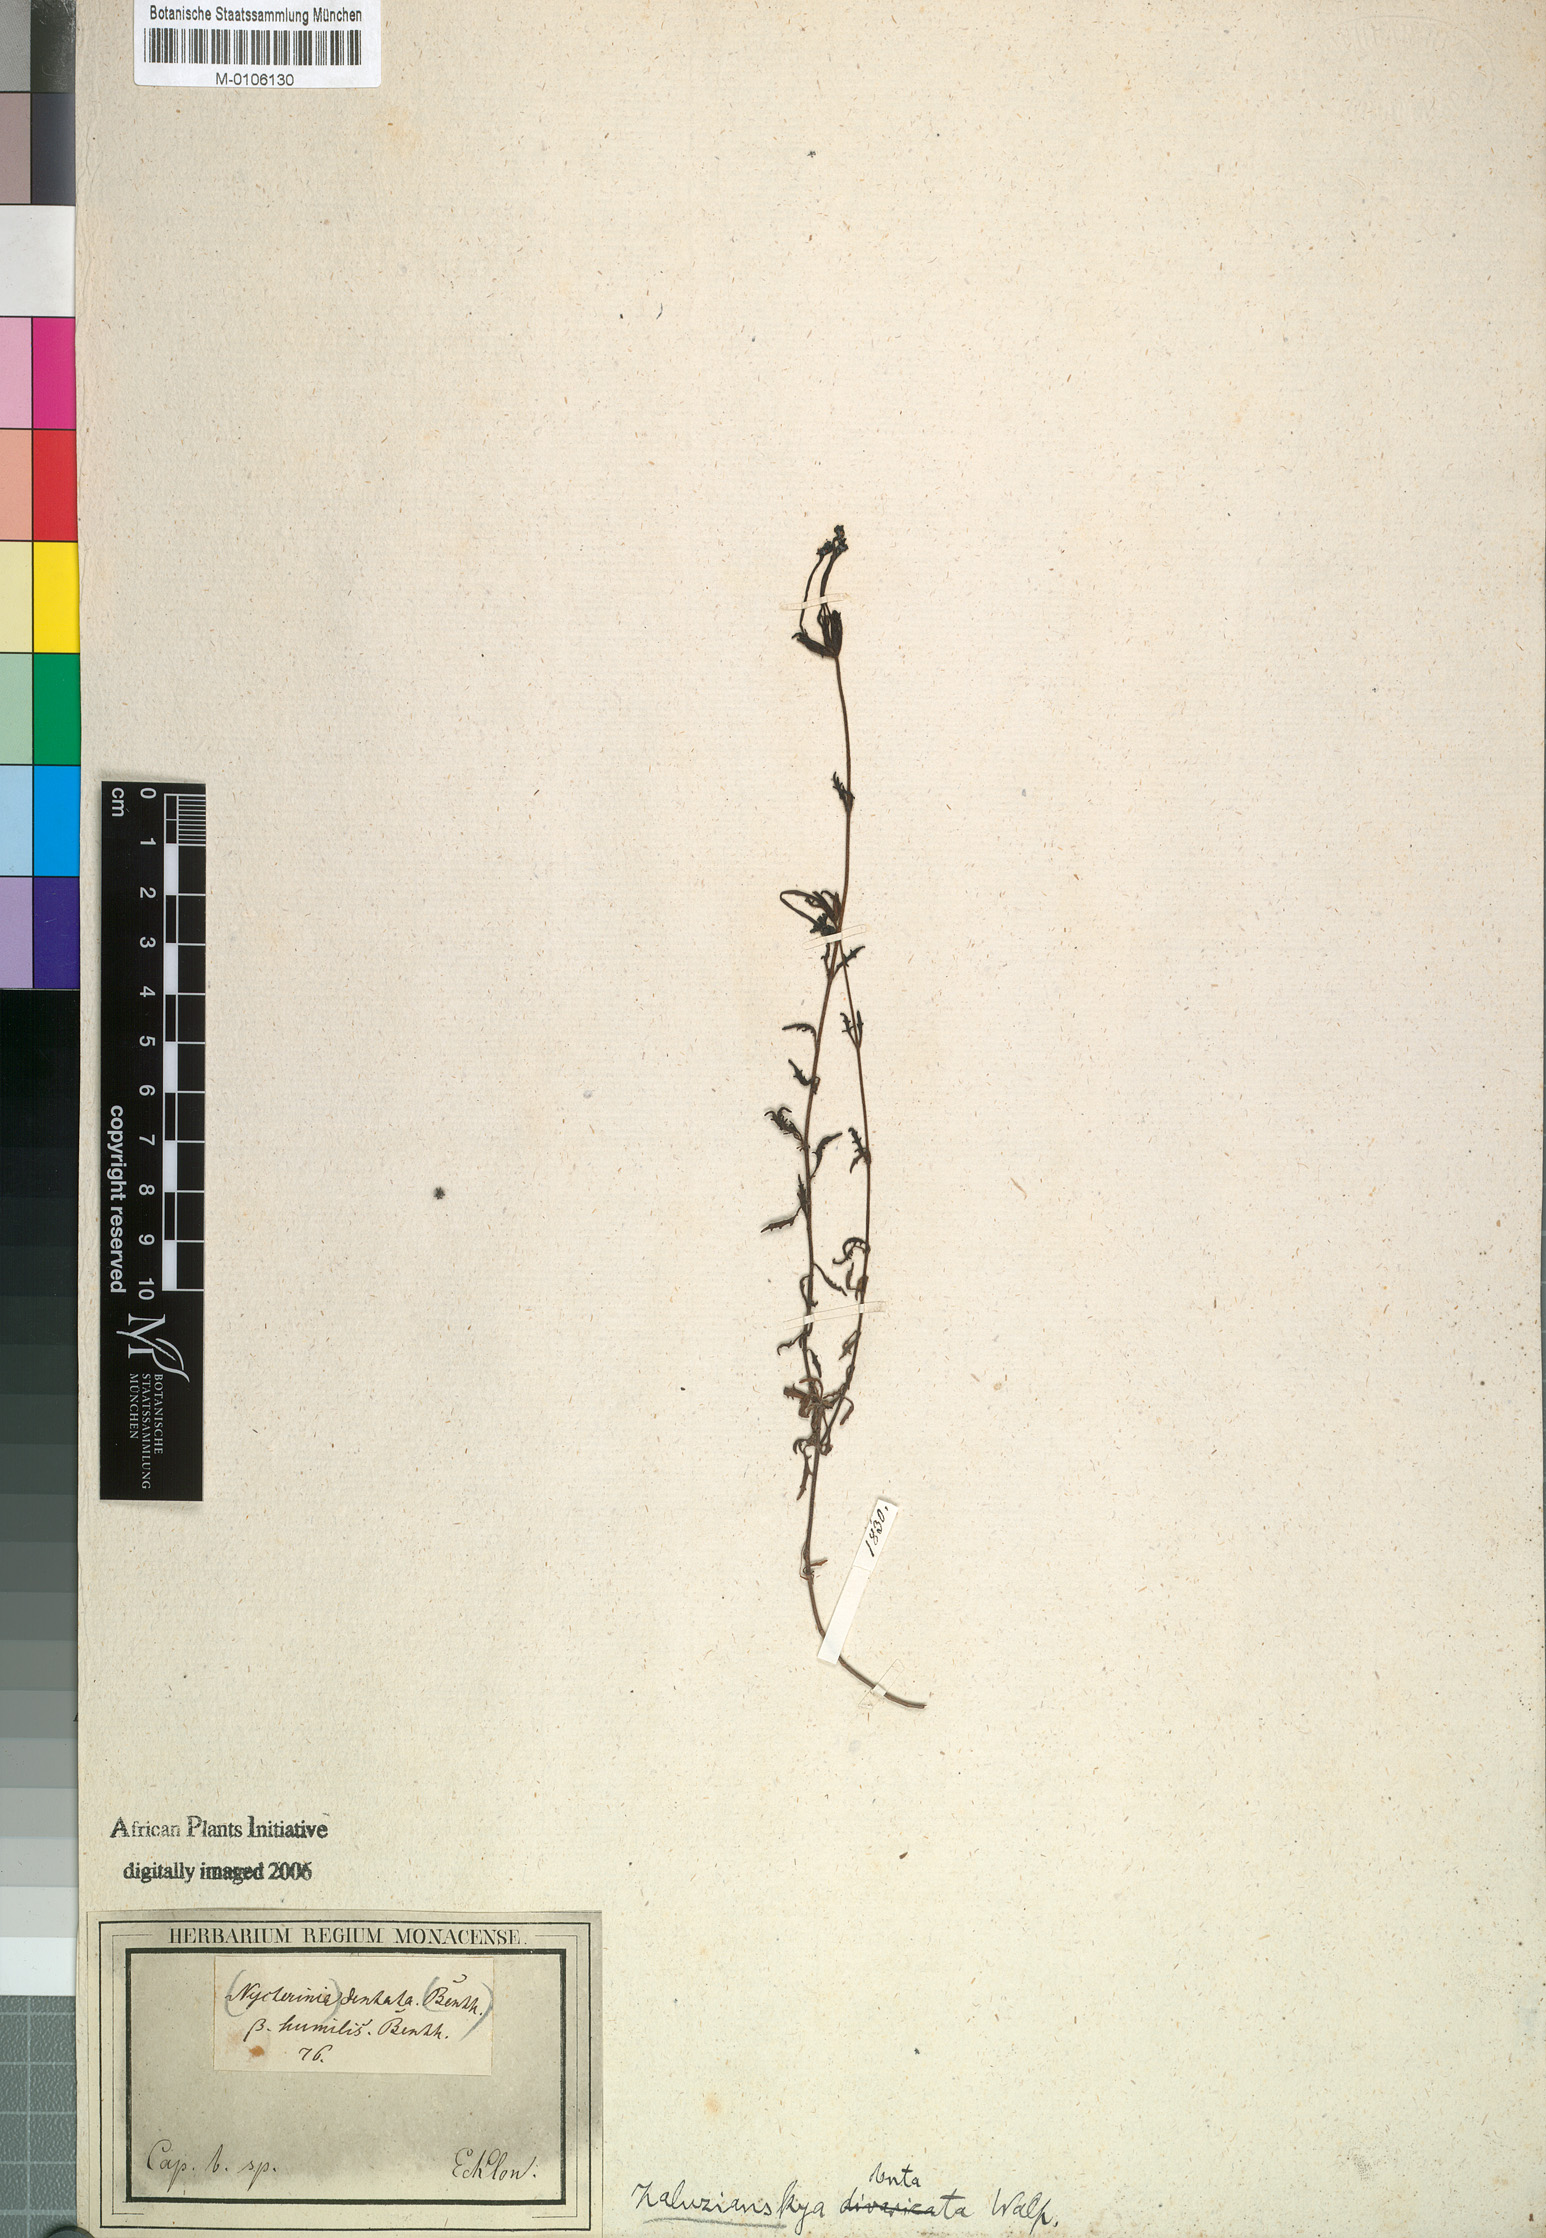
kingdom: Plantae
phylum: Tracheophyta
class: Magnoliopsida
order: Lamiales
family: Scrophulariaceae
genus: Zaluzianskya
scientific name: Zaluzianskya capensis
